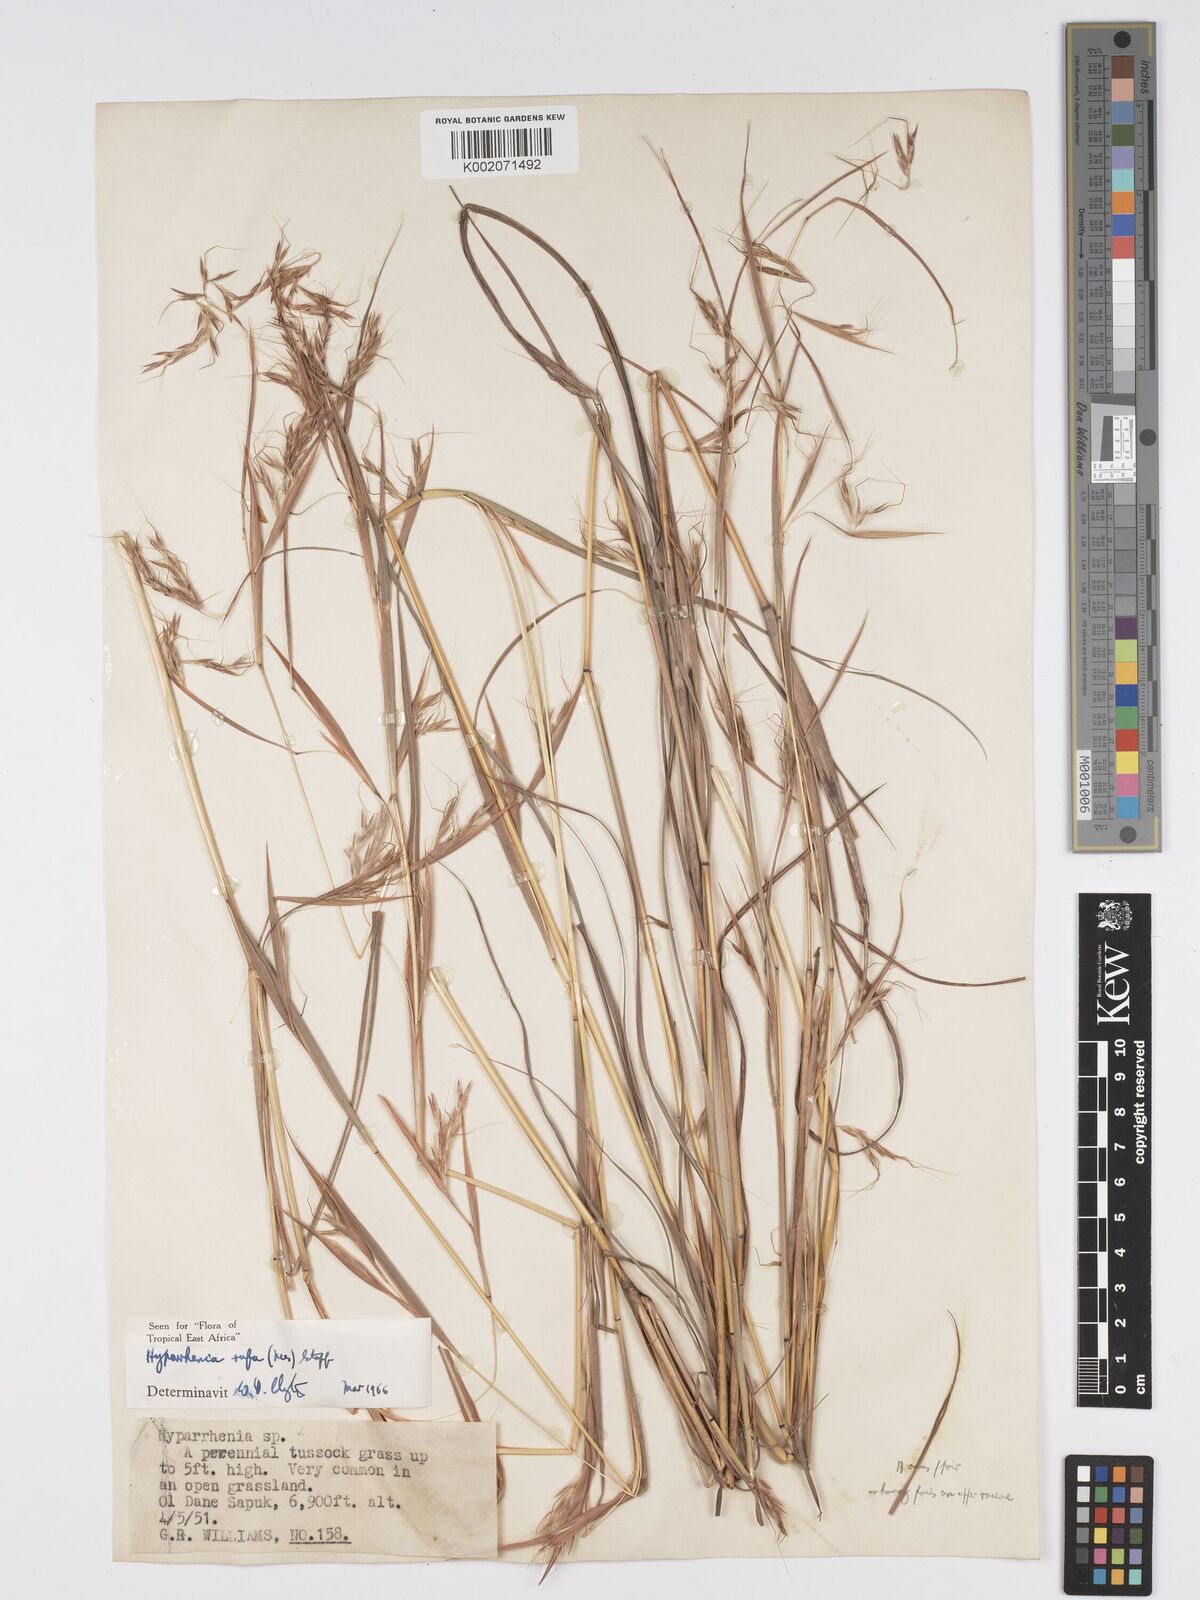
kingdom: Plantae
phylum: Tracheophyta
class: Liliopsida
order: Poales
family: Poaceae
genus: Hyparrhenia
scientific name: Hyparrhenia rufa
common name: Jaraguagrass
